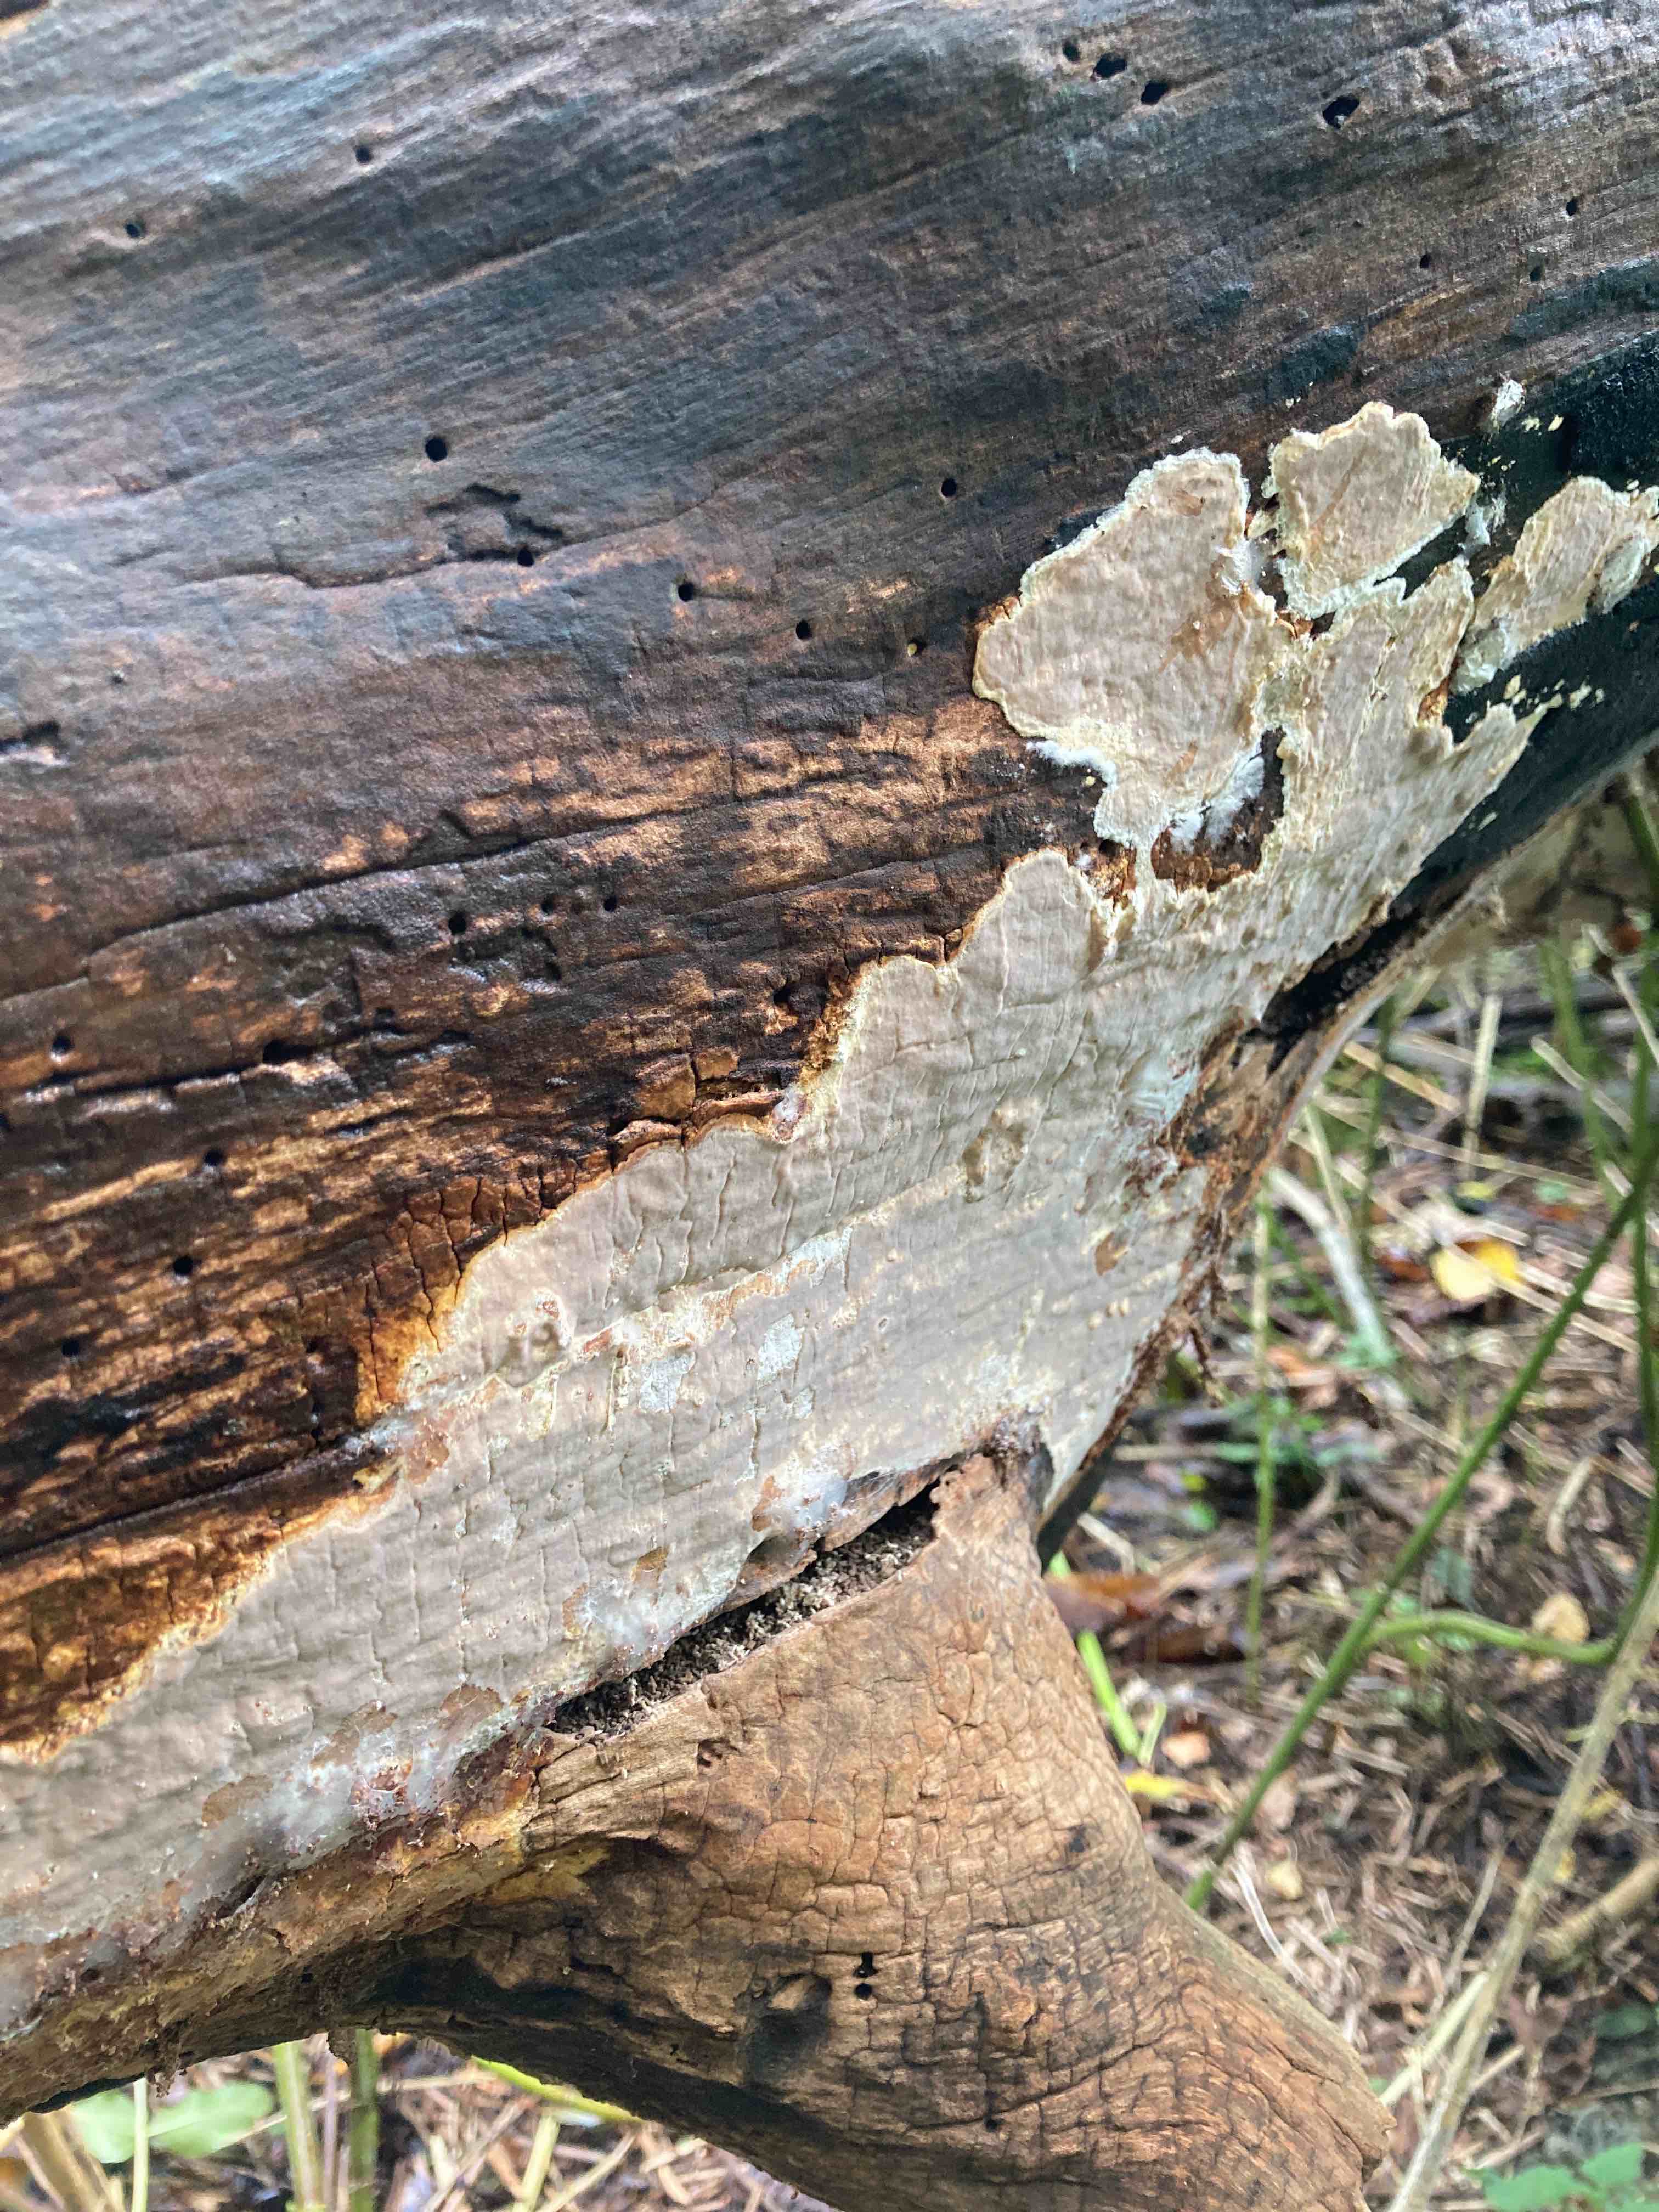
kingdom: Fungi
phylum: Basidiomycota
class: Agaricomycetes
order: Russulales
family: Peniophoraceae
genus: Scytinostroma
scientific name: Scytinostroma hemidichophyticum
